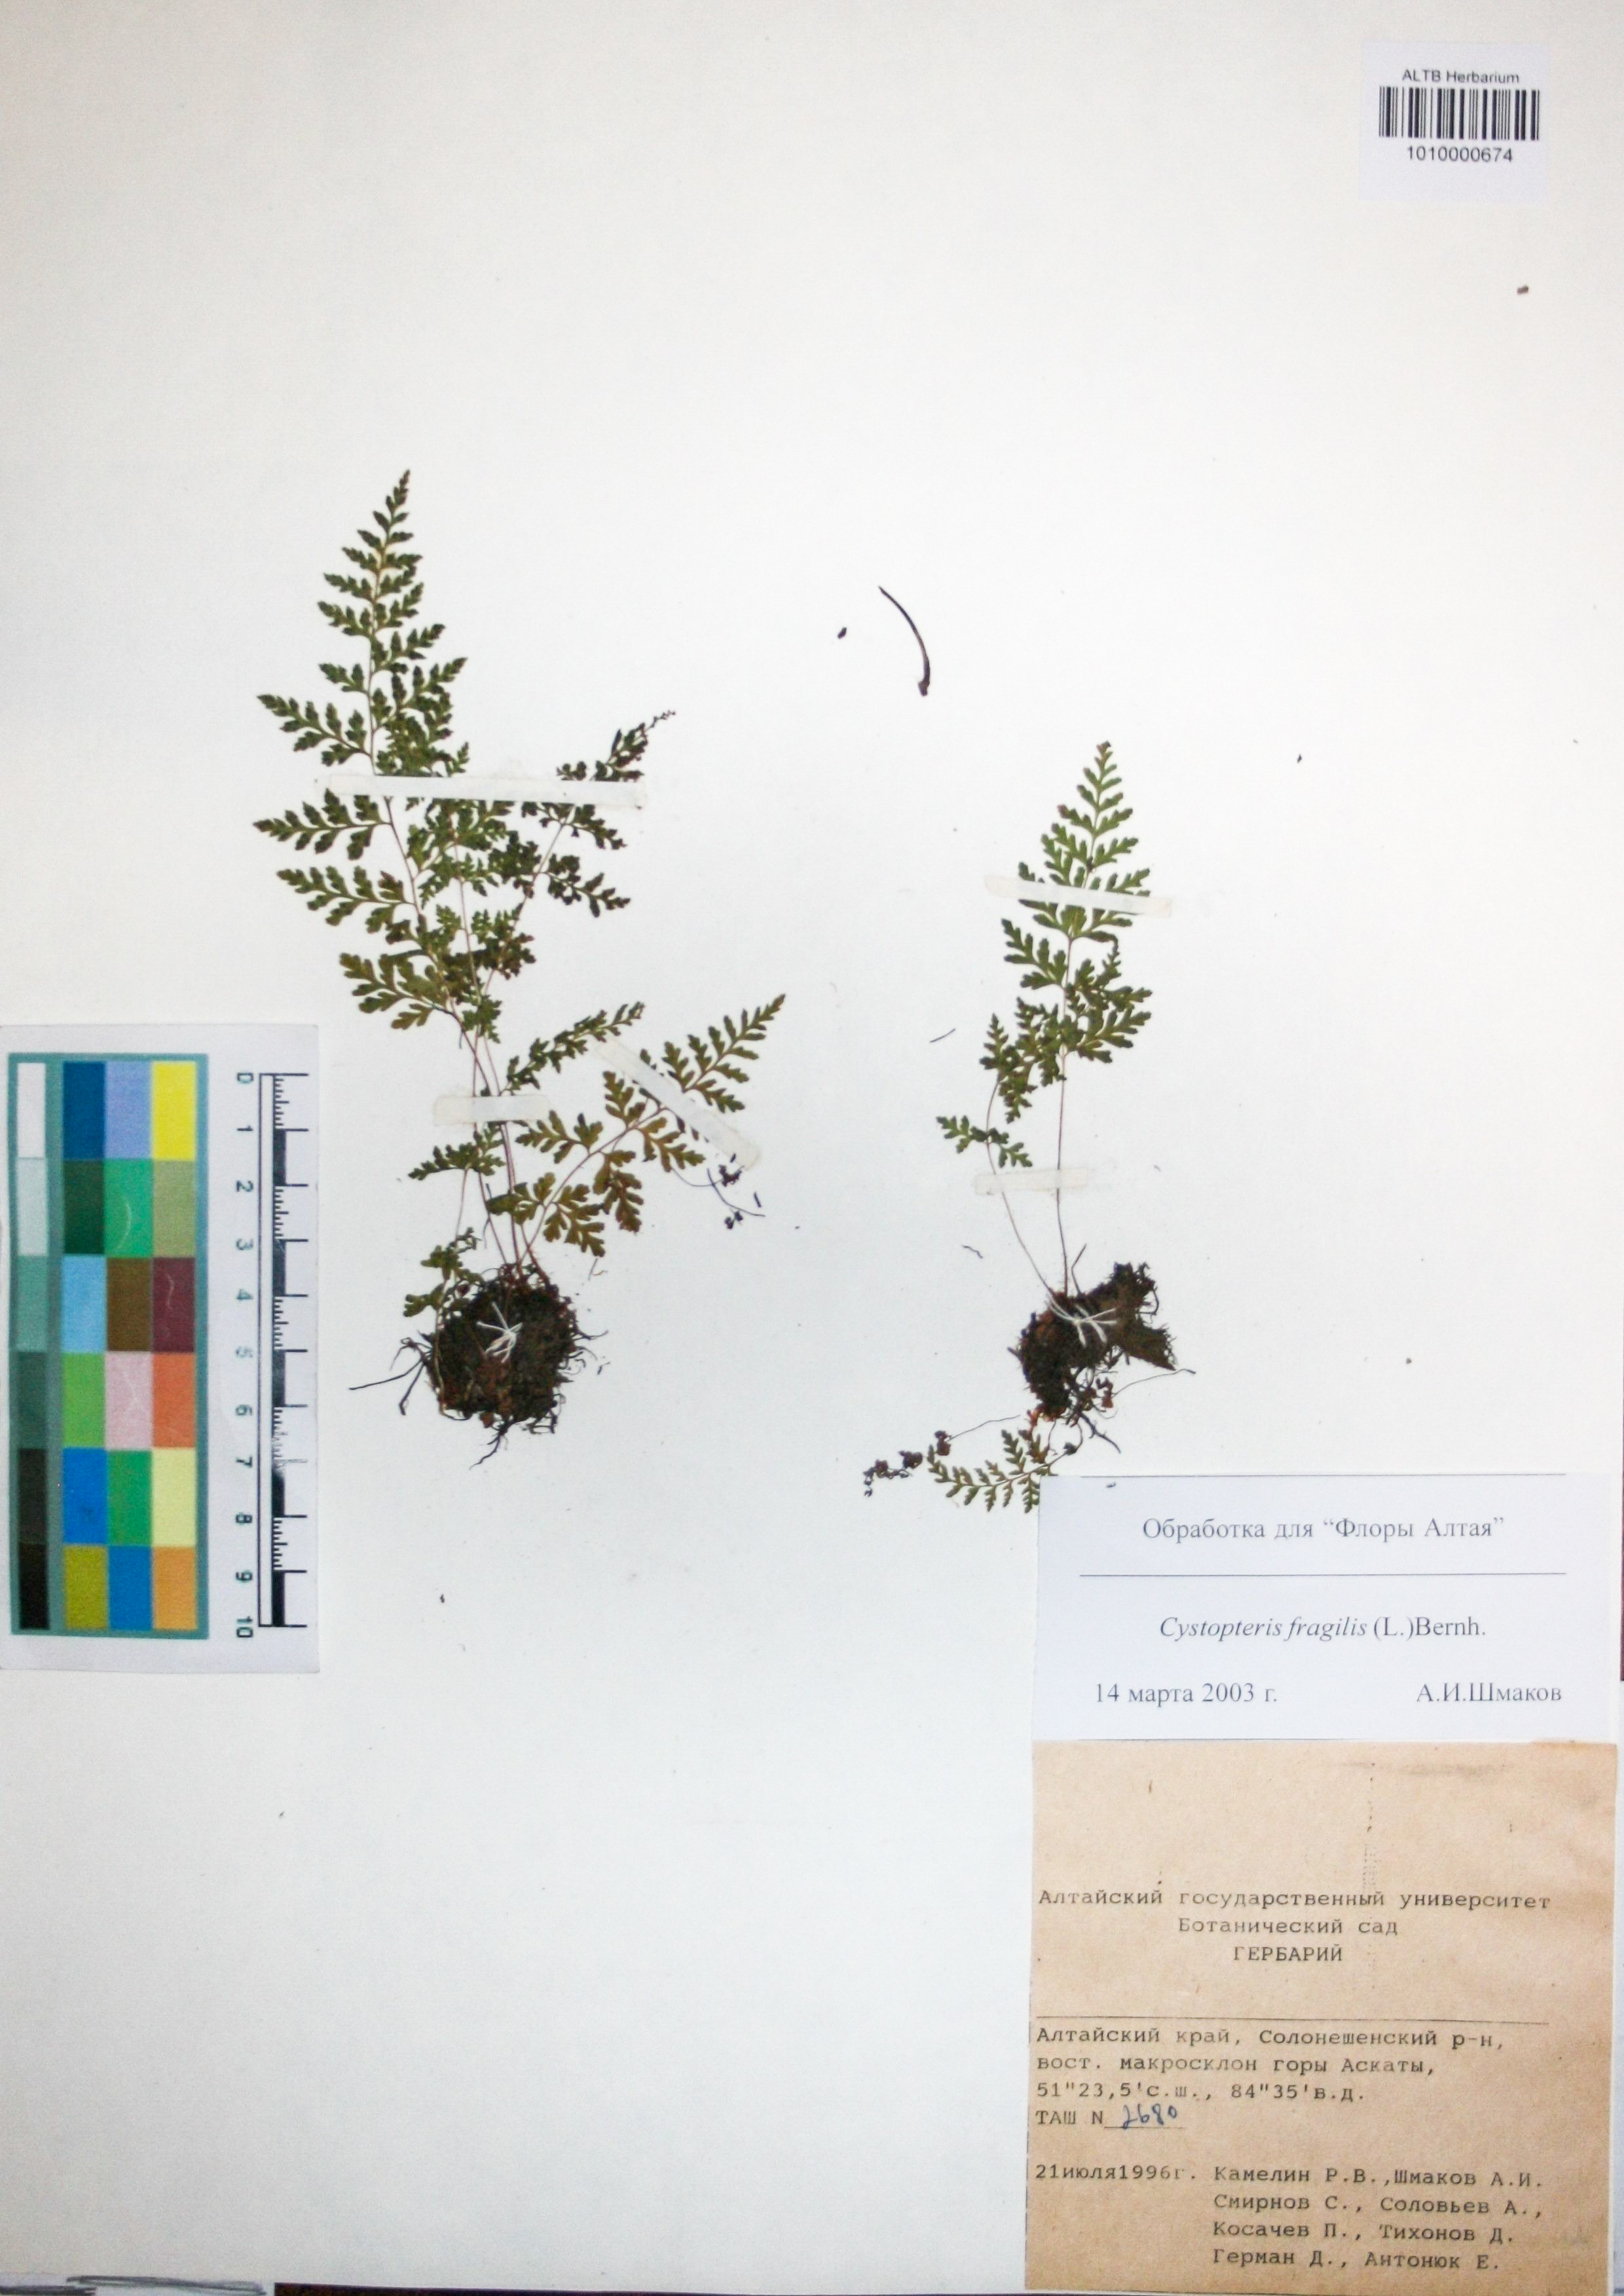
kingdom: Plantae
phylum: Tracheophyta
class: Polypodiopsida
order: Polypodiales
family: Cystopteridaceae
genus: Cystopteris
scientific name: Cystopteris fragilis
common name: Brittle bladder fern
